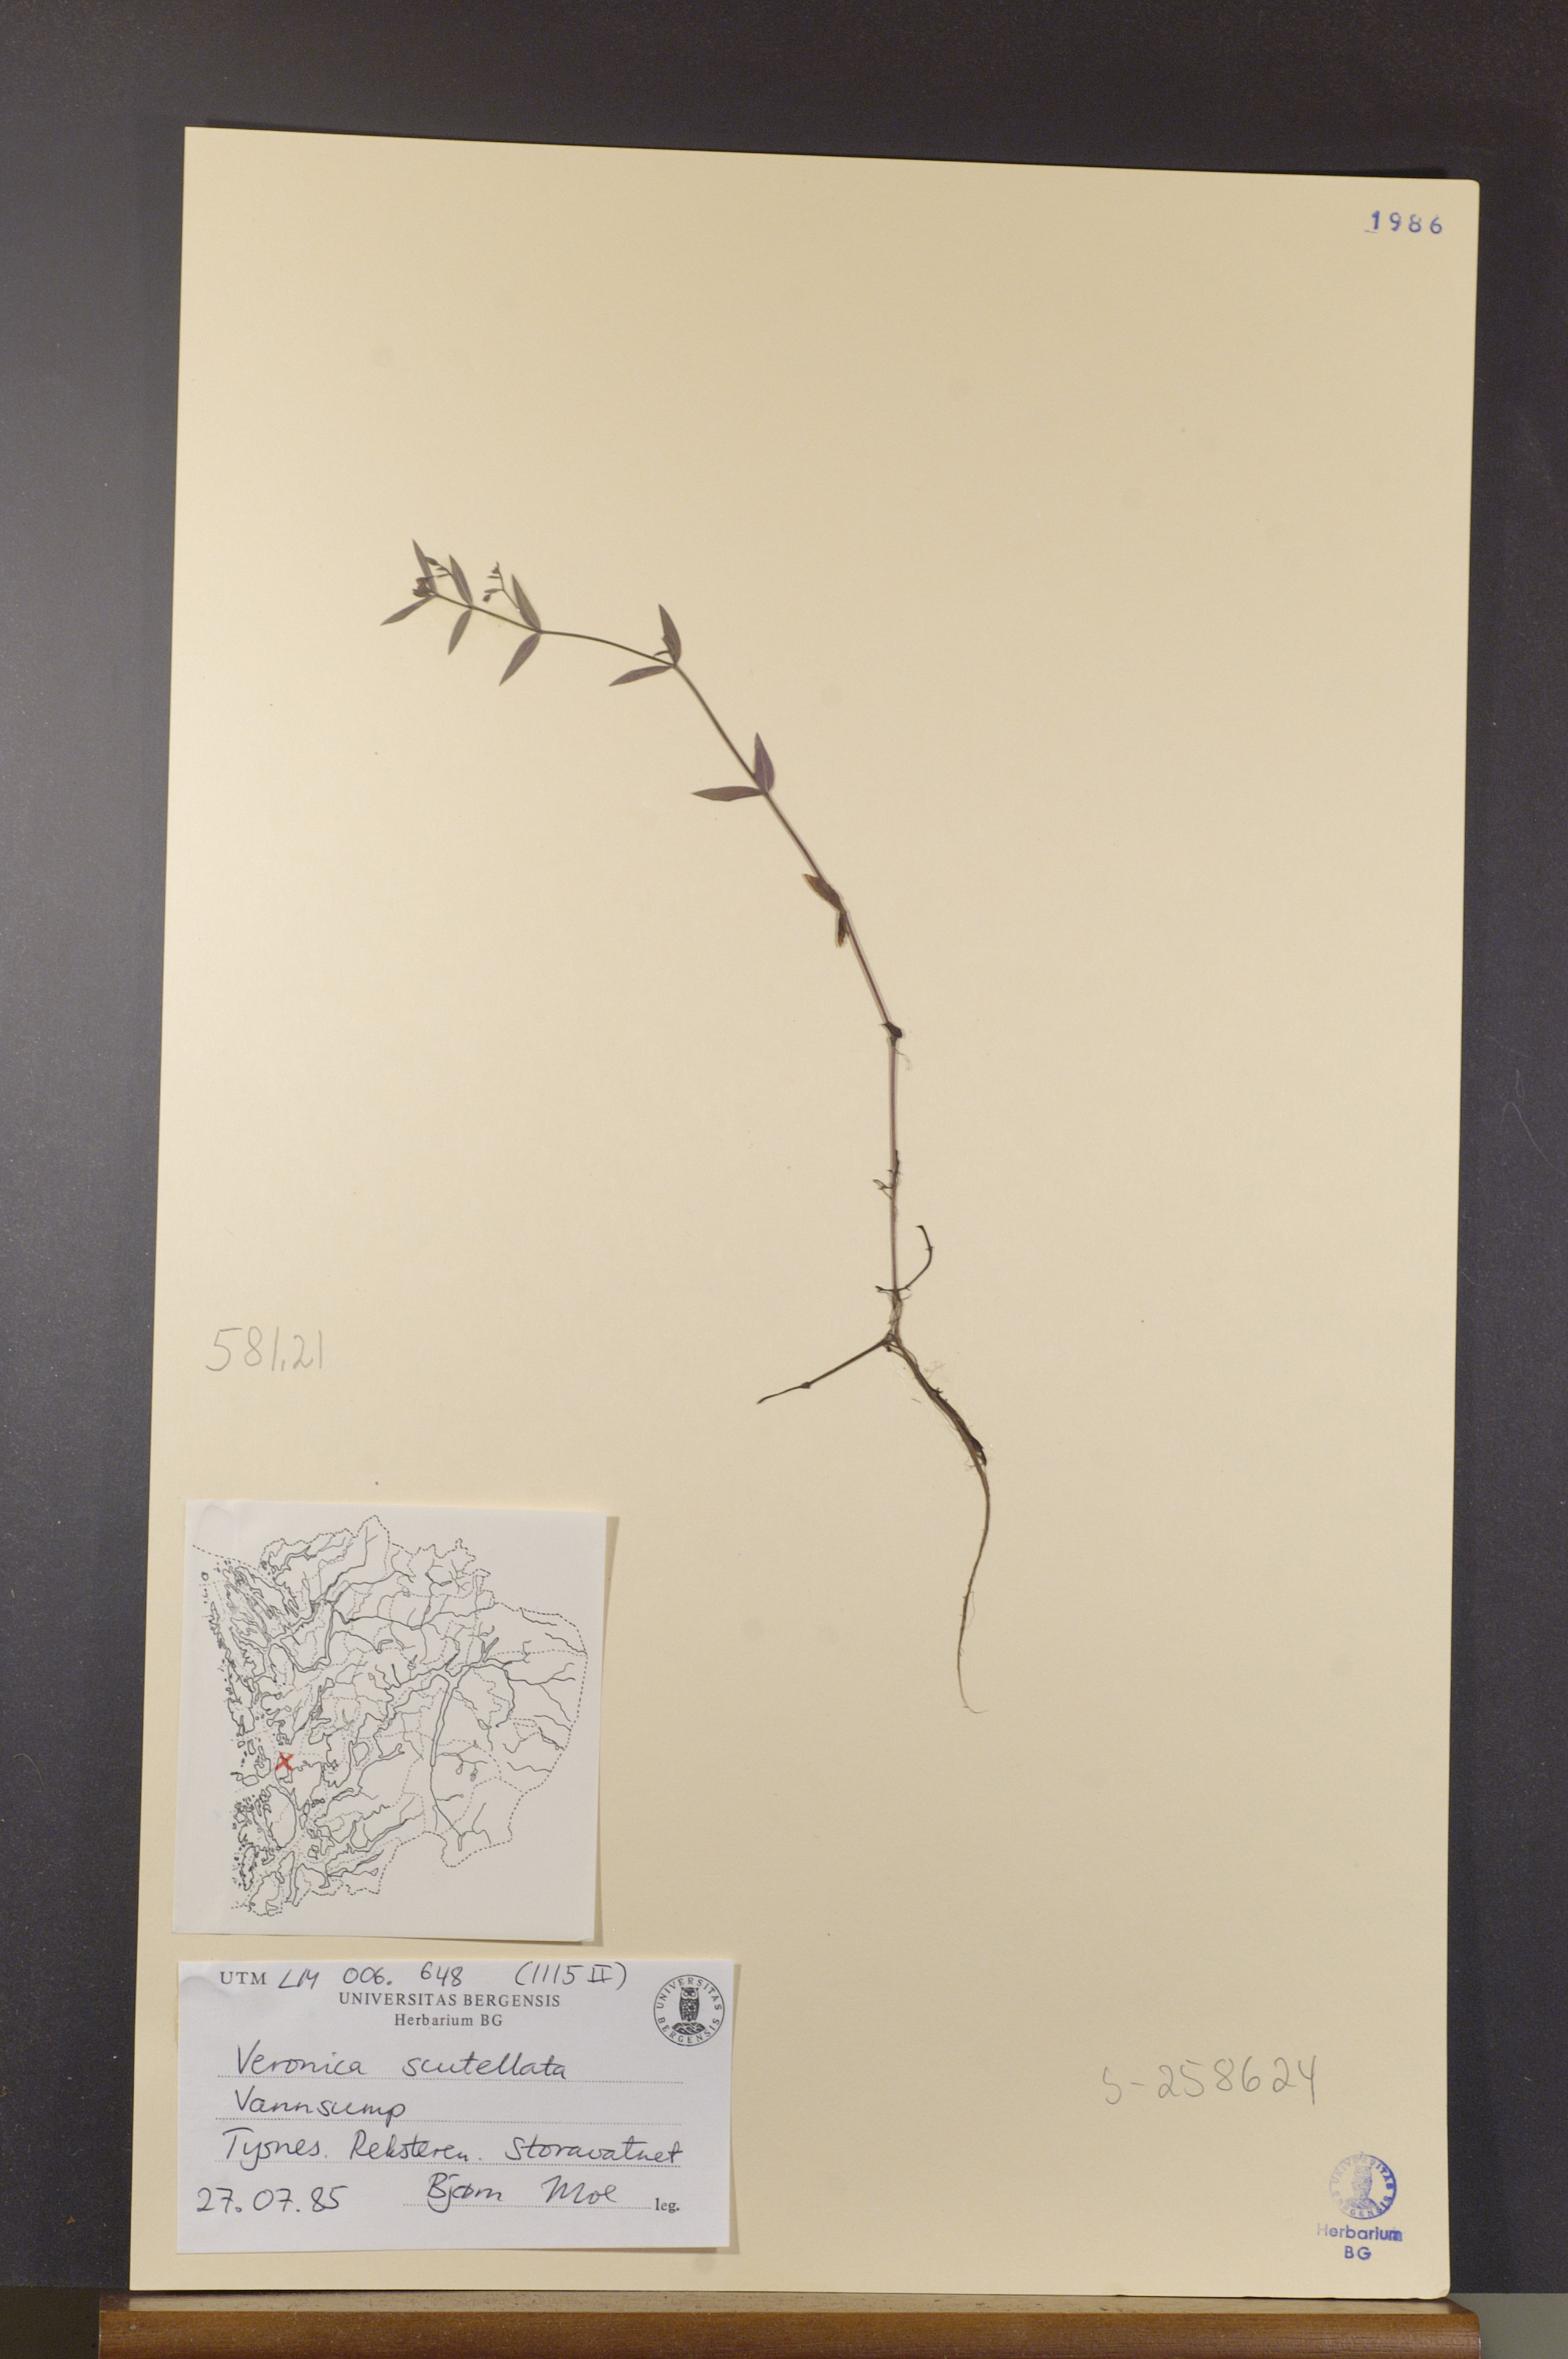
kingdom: Plantae
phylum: Tracheophyta
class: Magnoliopsida
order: Lamiales
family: Plantaginaceae
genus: Veronica
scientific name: Veronica scutellata
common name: Marsh speedwell
